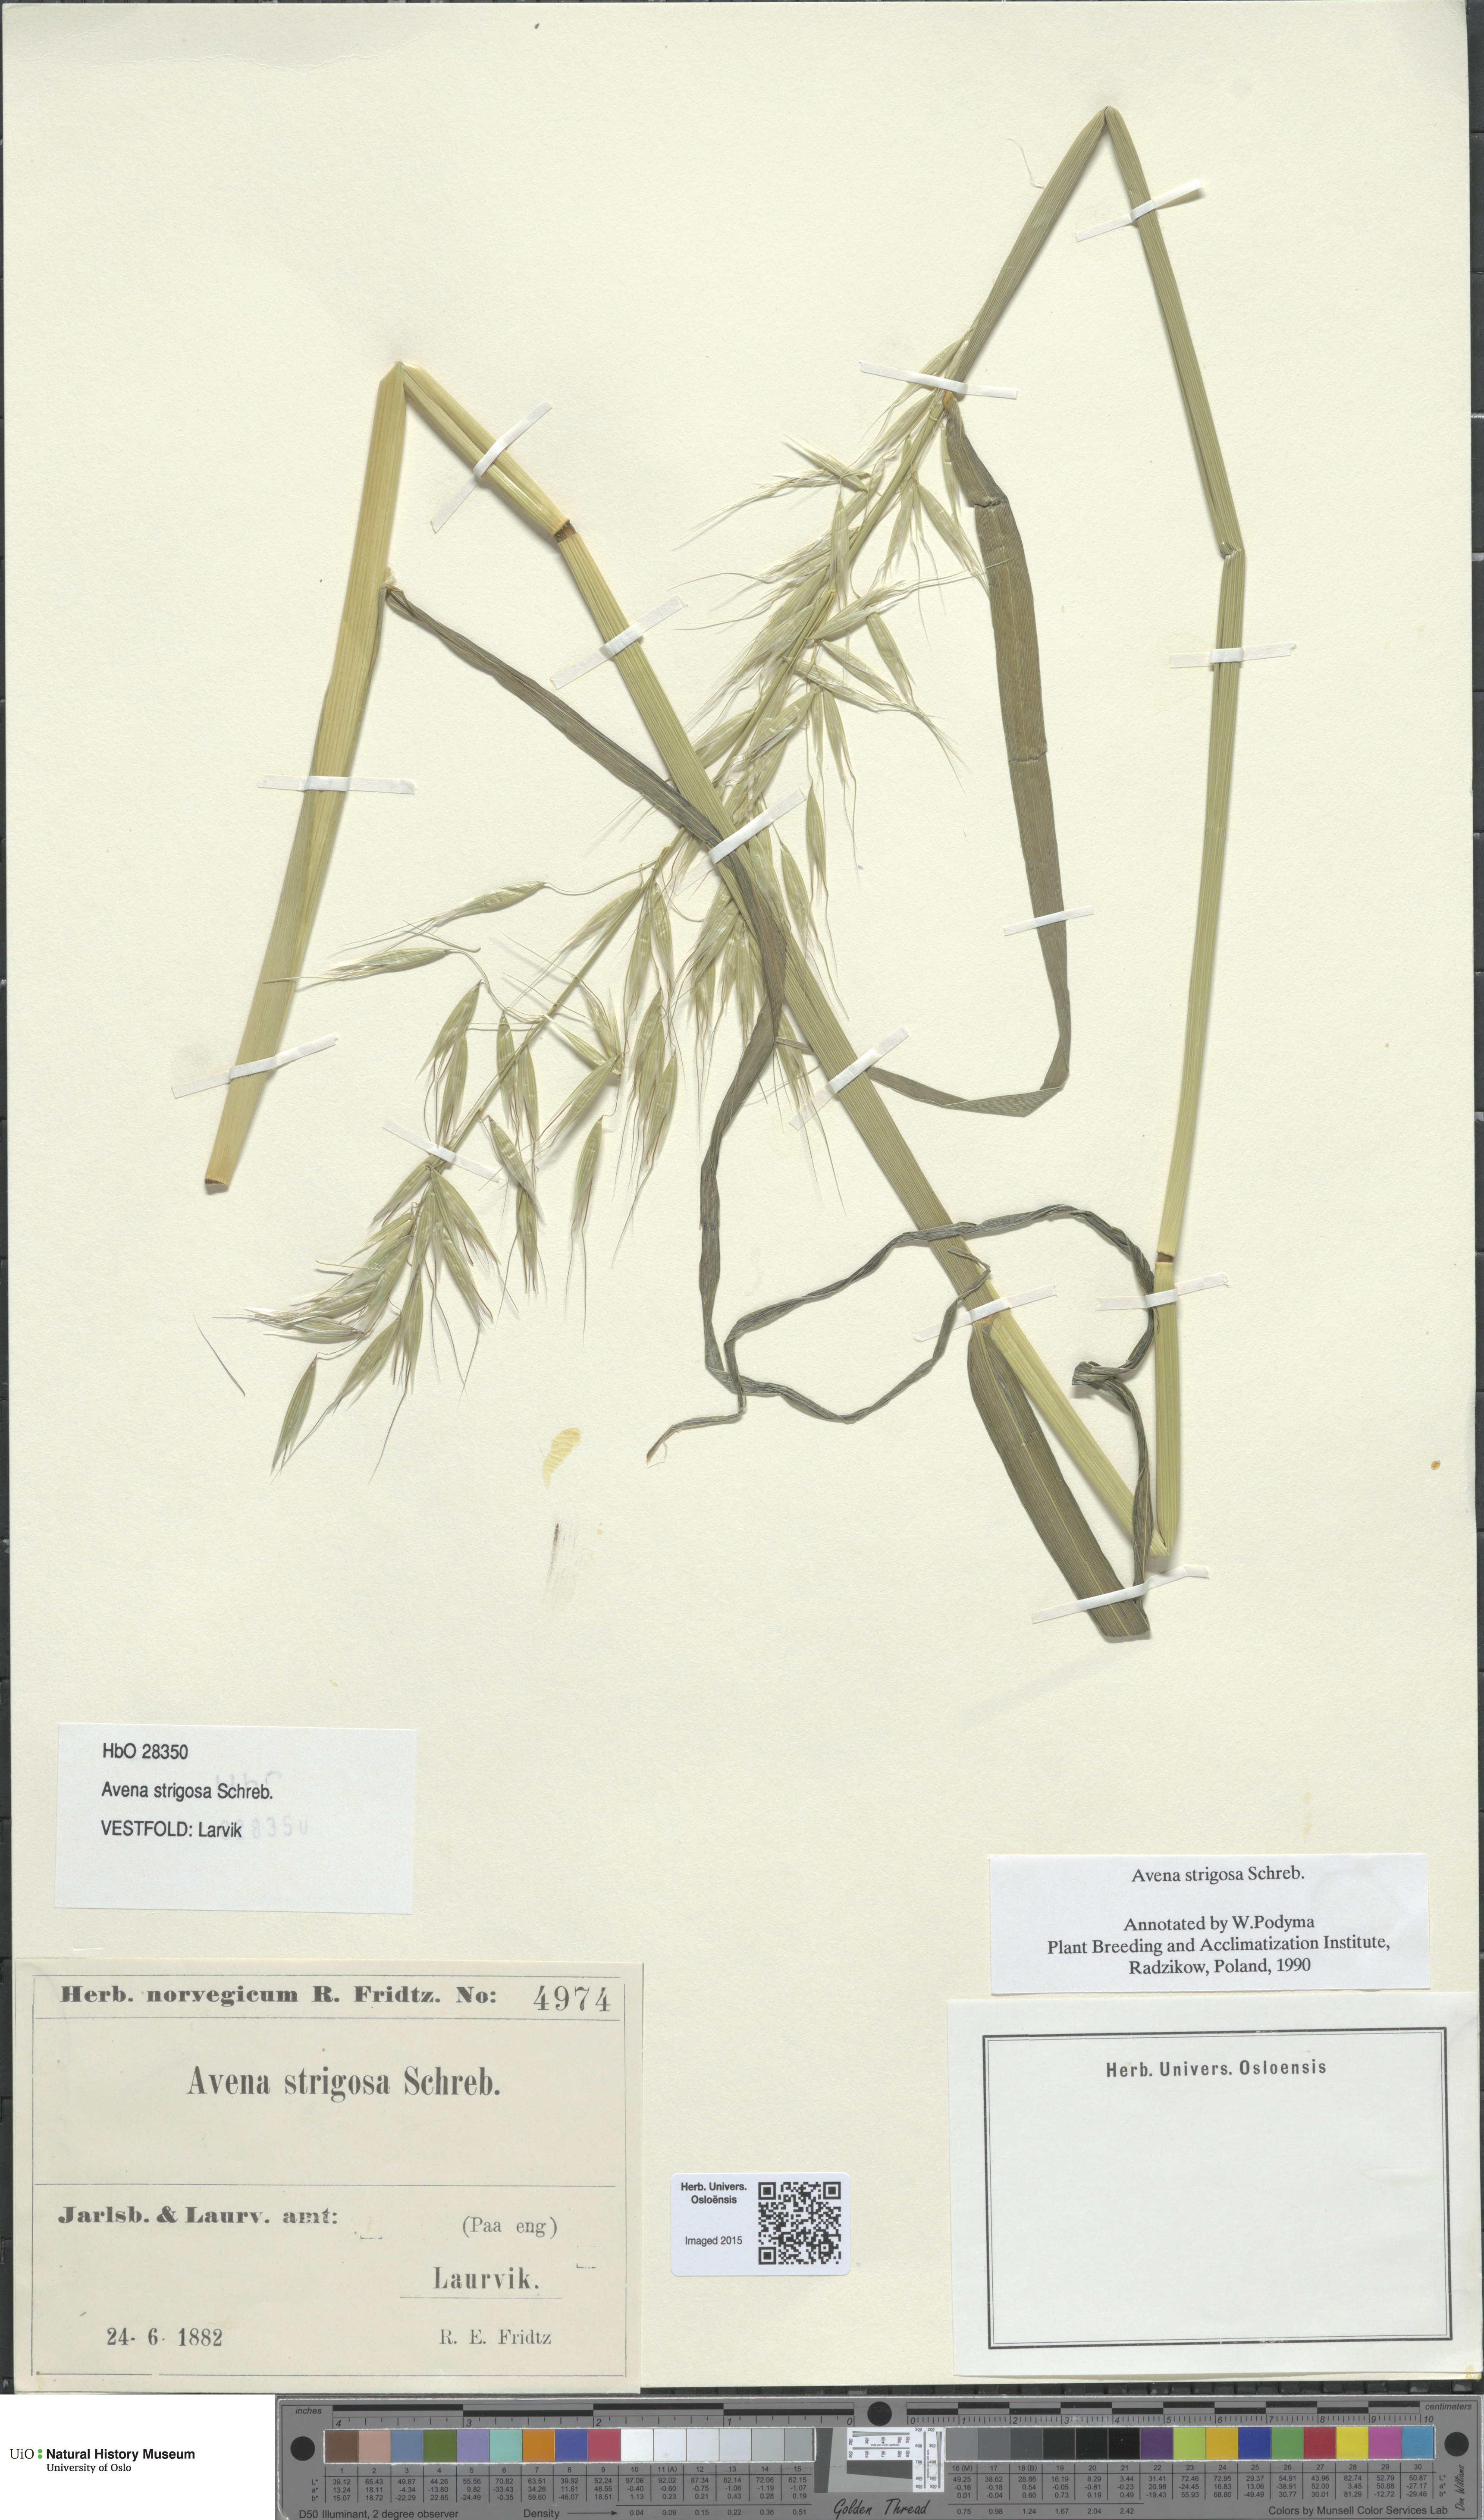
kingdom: Plantae
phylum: Tracheophyta
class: Liliopsida
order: Poales
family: Poaceae
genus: Avena
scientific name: Avena strigosa
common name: Bristle oat
